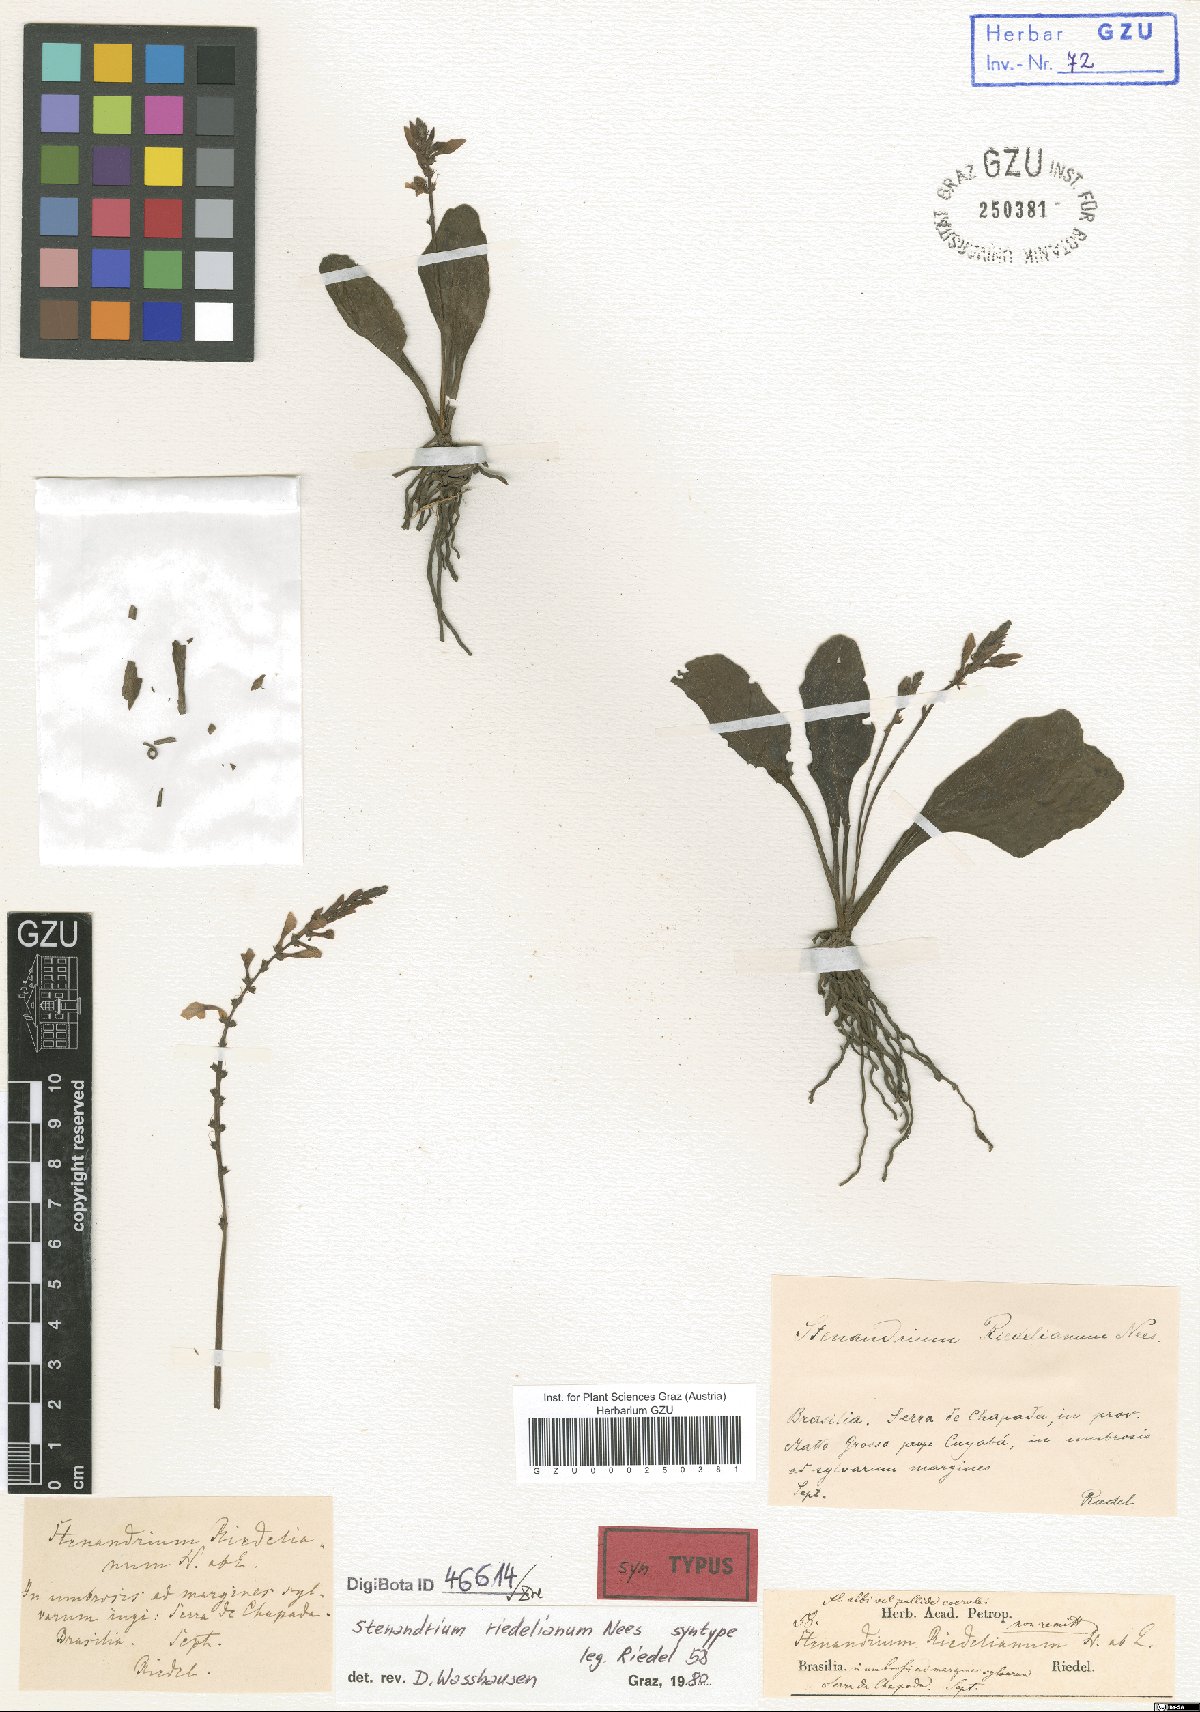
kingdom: Plantae
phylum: Tracheophyta
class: Magnoliopsida
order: Lamiales
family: Acanthaceae
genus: Stenandrium
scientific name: Stenandrium riedelianum
